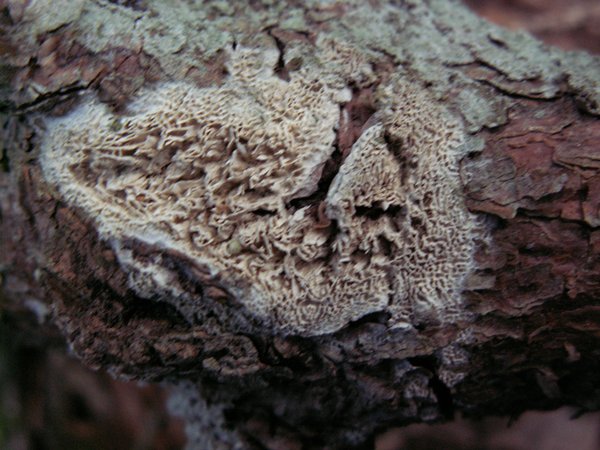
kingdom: Fungi
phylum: Basidiomycota
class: Agaricomycetes
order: Polyporales
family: Fomitopsidaceae
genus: Fomitopsis
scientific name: Fomitopsis
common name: fyrre-skiveporesvamp
